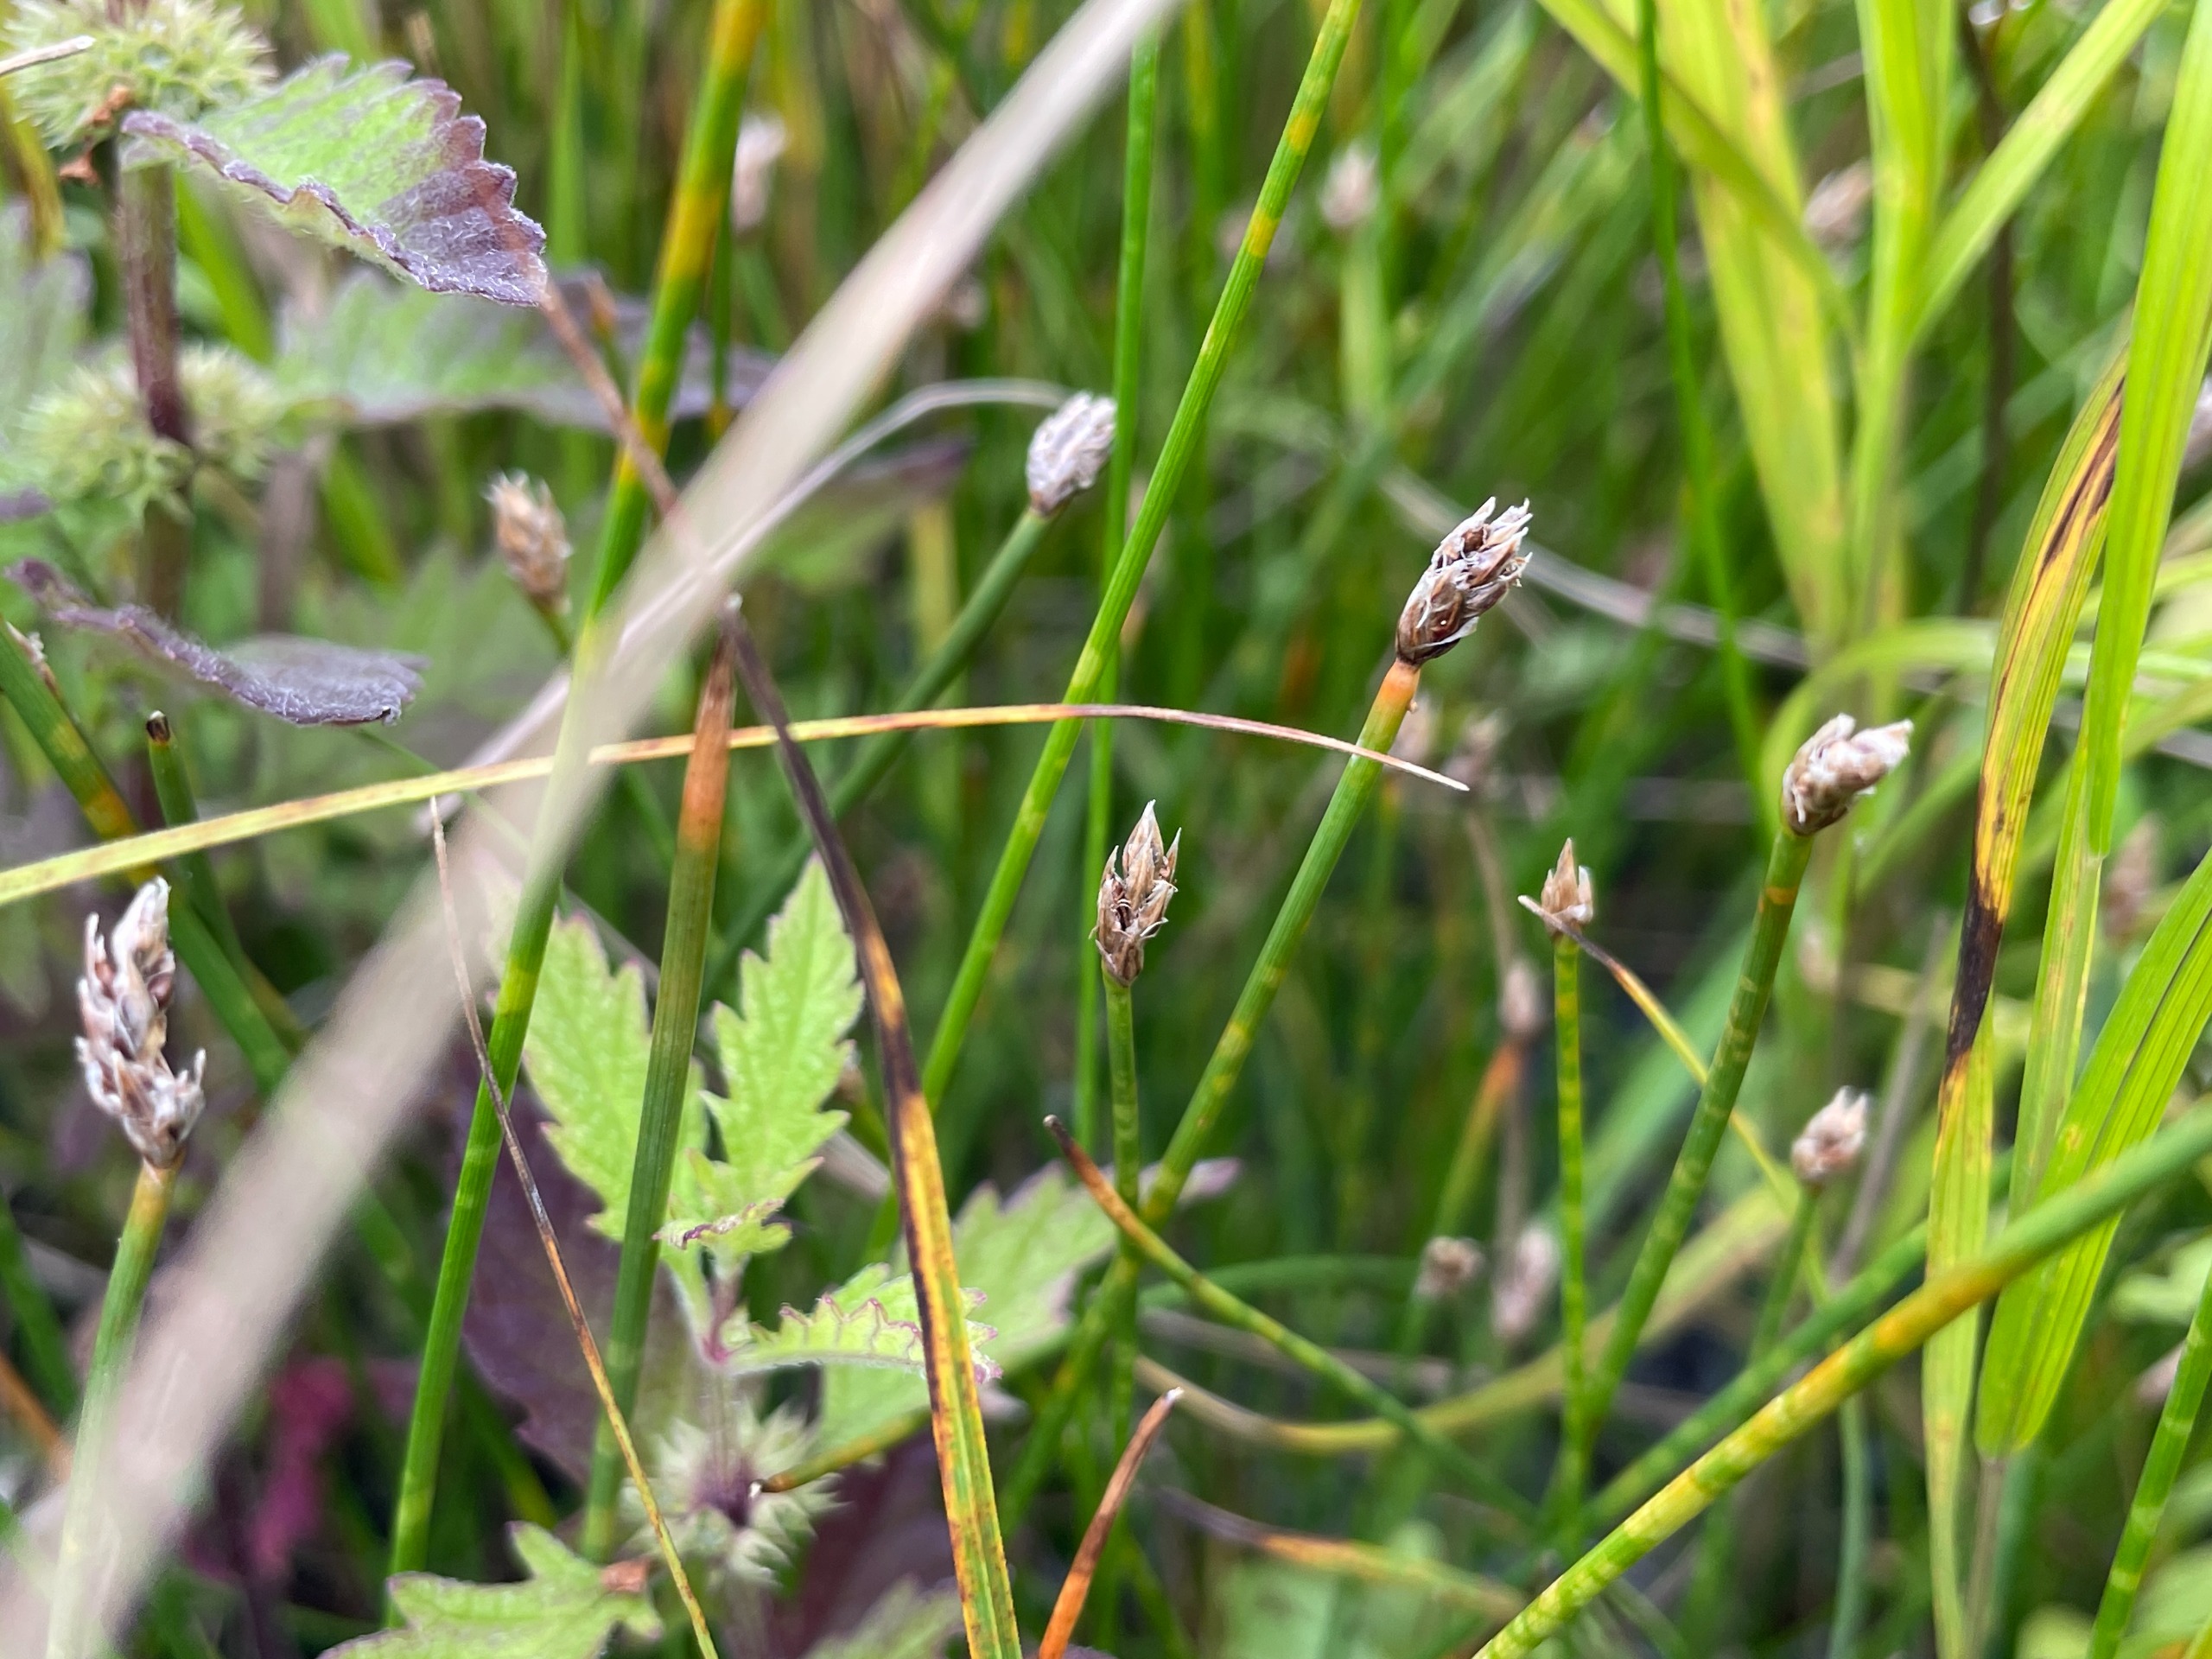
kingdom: Plantae
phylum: Tracheophyta
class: Liliopsida
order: Poales
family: Cyperaceae
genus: Eleocharis
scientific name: Eleocharis palustris
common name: Almindelig sumpstrå
